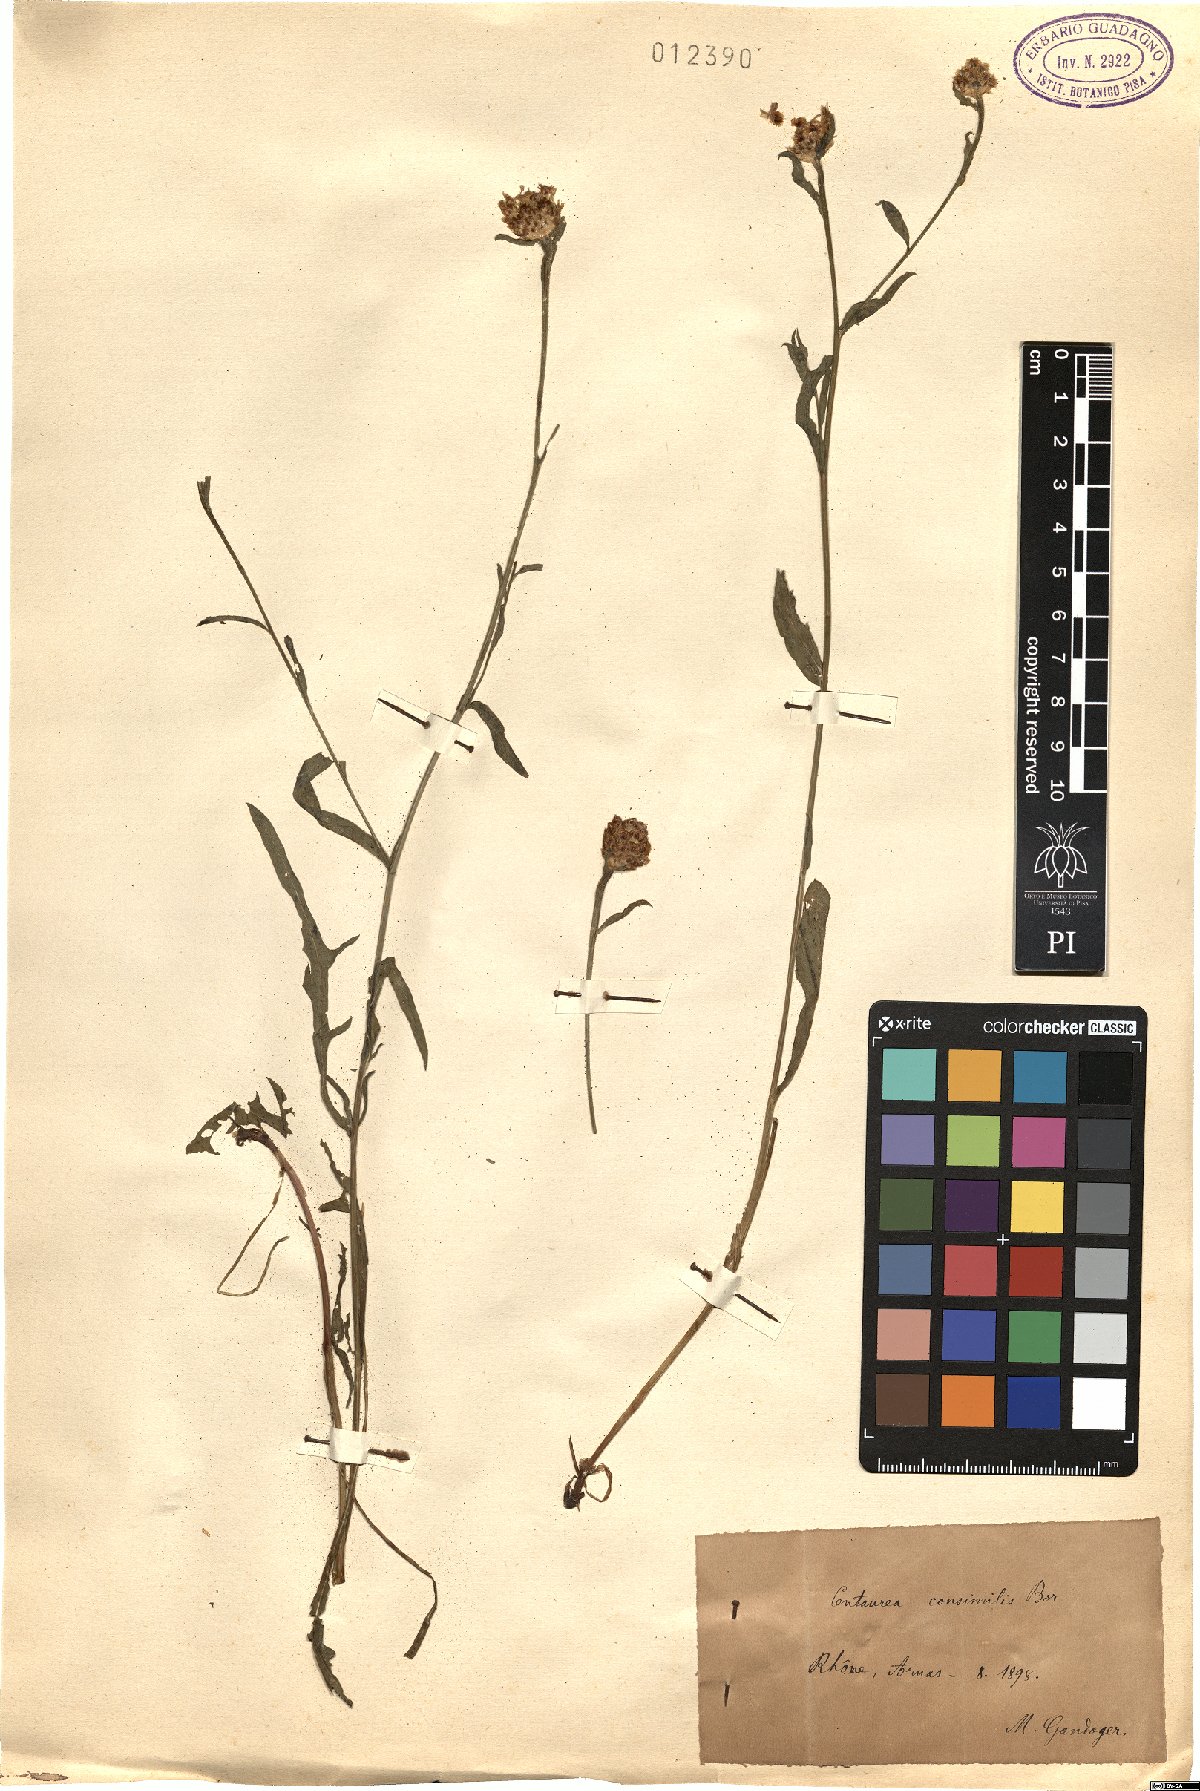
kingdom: Plantae
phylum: Tracheophyta
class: Magnoliopsida
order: Asterales
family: Asteraceae
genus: Centaurea
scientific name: Centaurea jacea
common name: Brown knapweed
